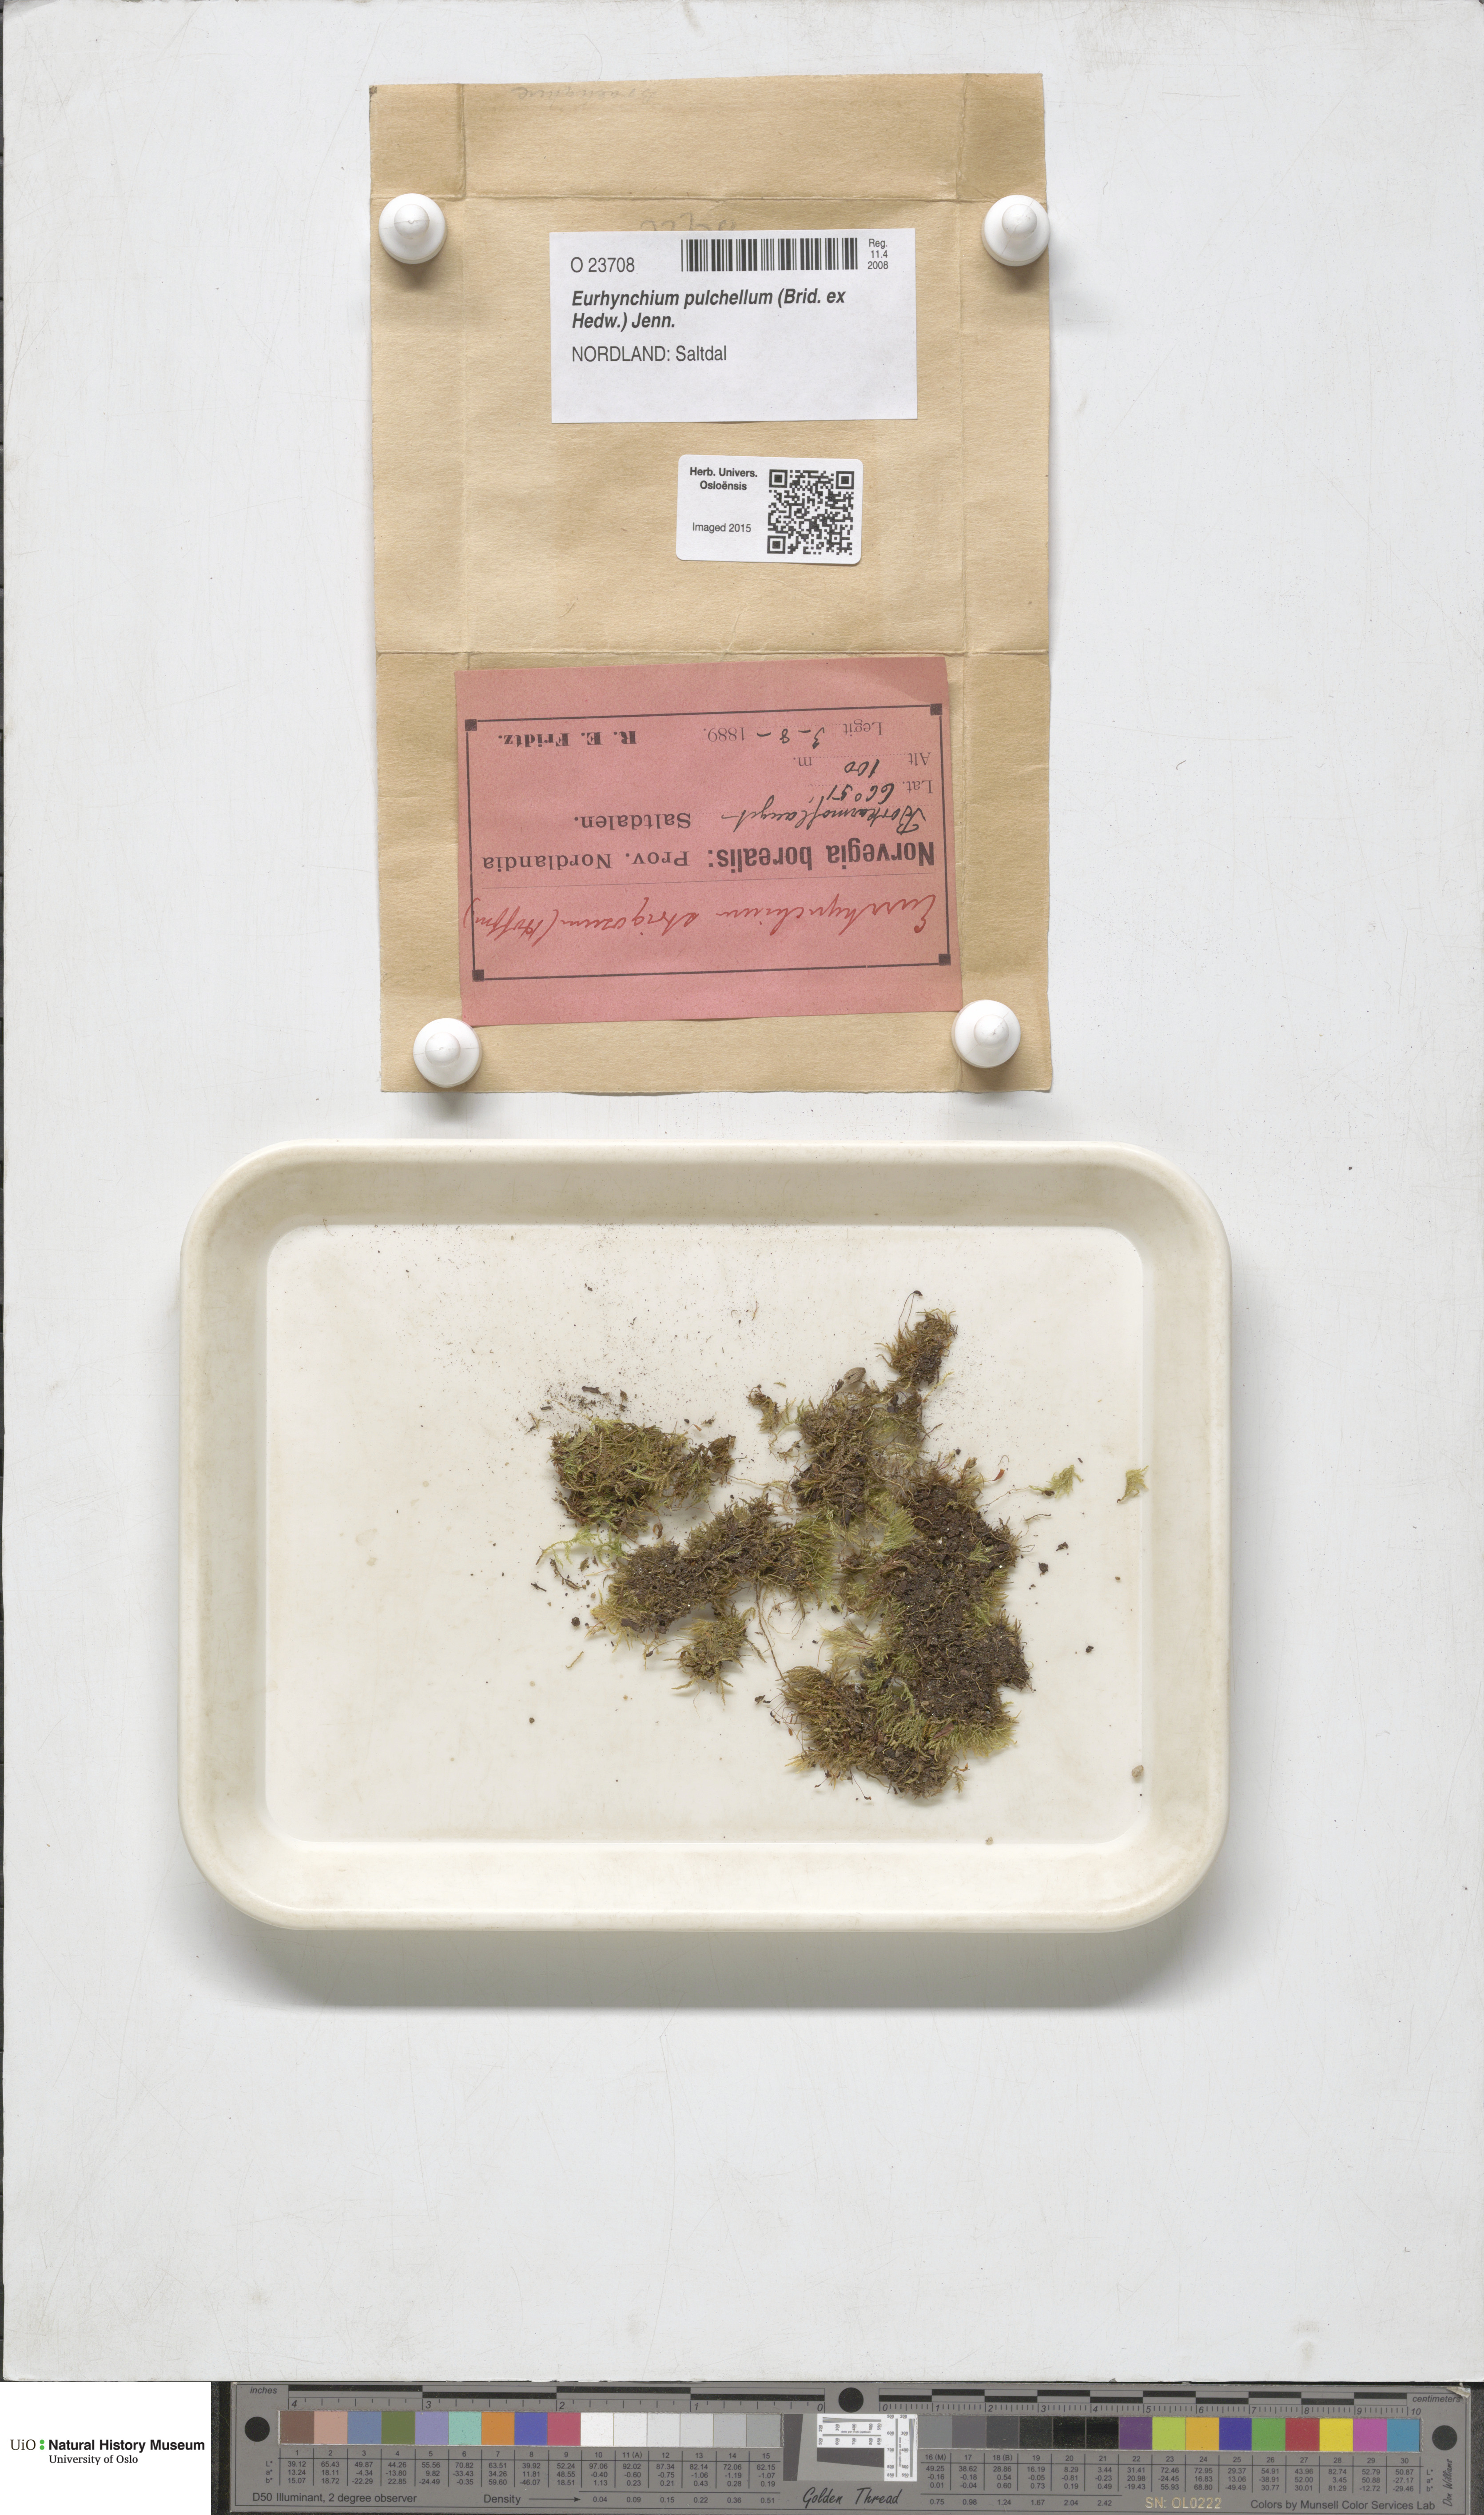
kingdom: Plantae
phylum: Bryophyta
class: Bryopsida
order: Hypnales
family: Brachytheciaceae
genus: Eurhynchiastrum
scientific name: Eurhynchiastrum pulchellum
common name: Elegant beaked moss
